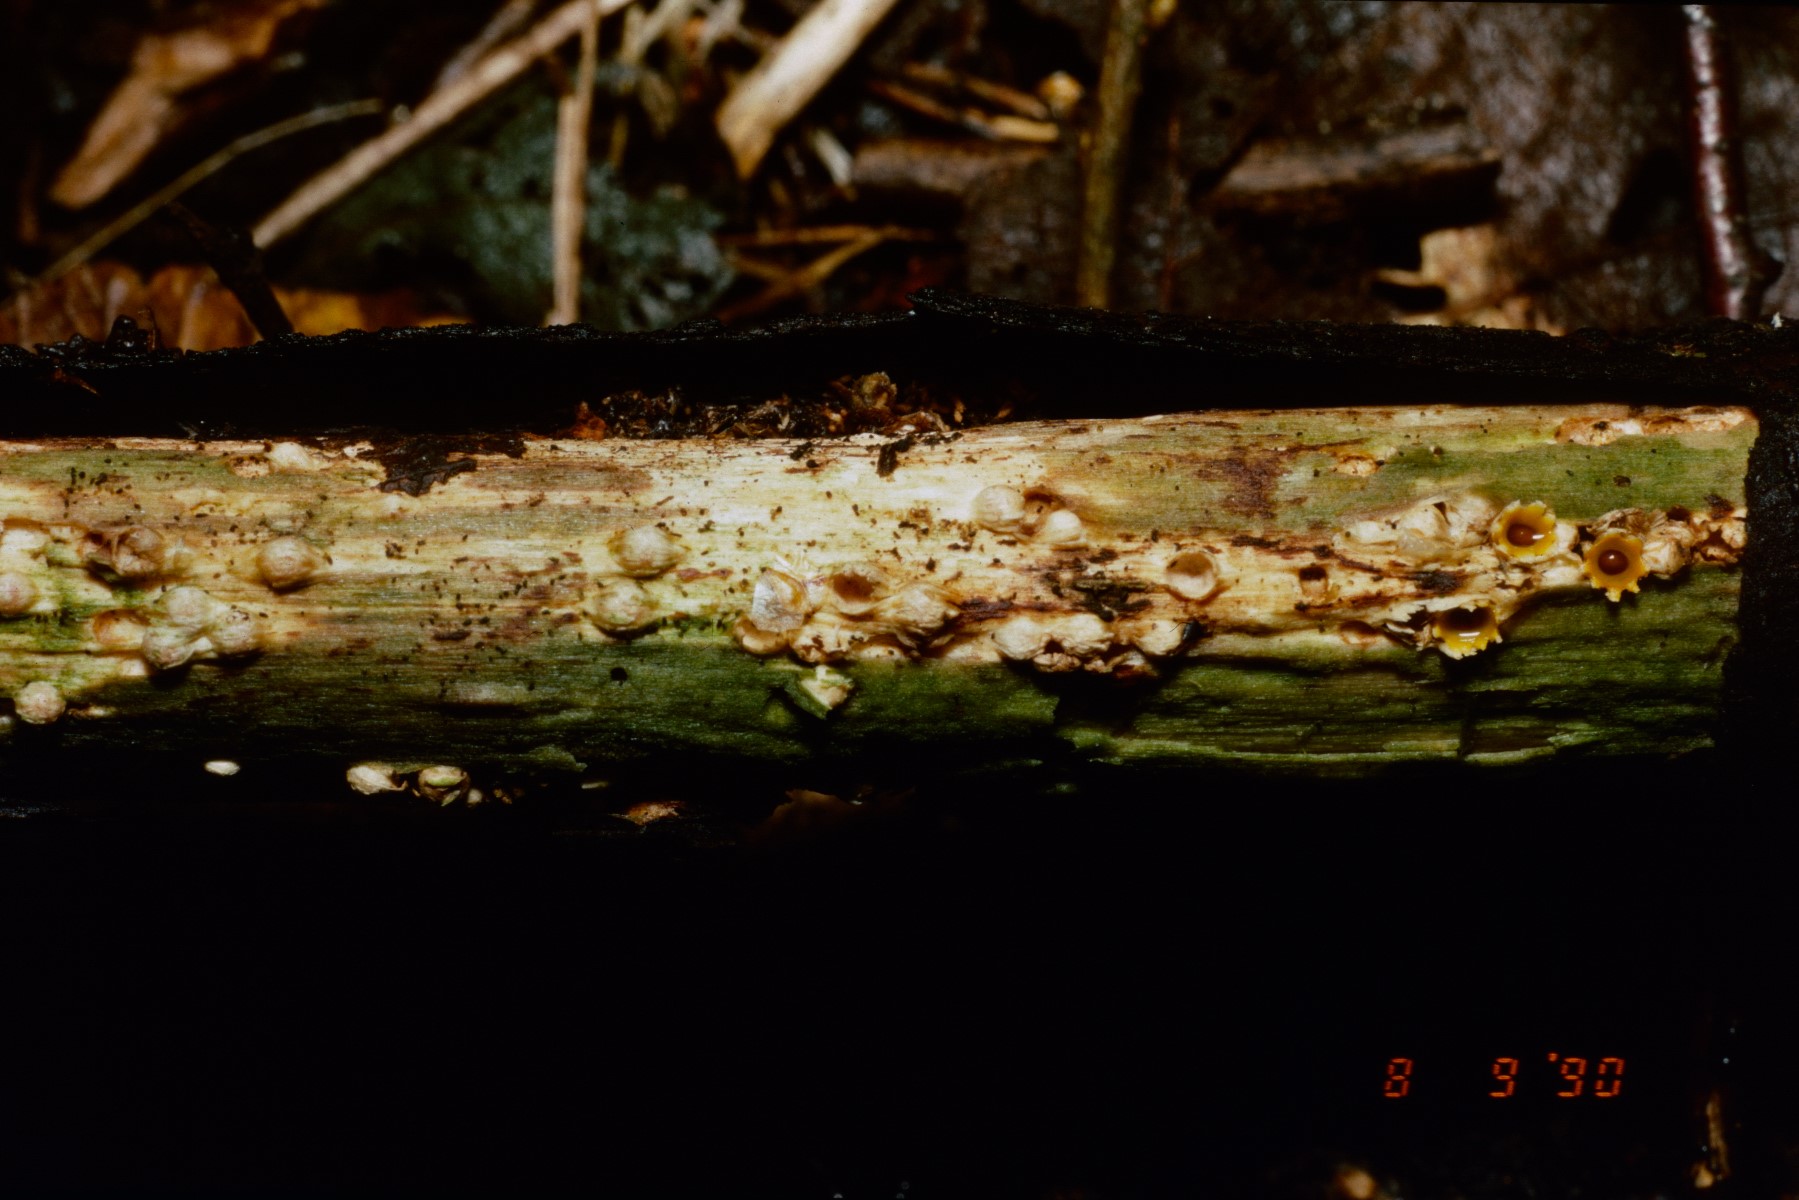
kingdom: Fungi
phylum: Basidiomycota
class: Agaricomycetes
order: Geastrales
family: Geastraceae
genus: Sphaerobolus
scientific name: Sphaerobolus stellatus
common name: bombekaster
